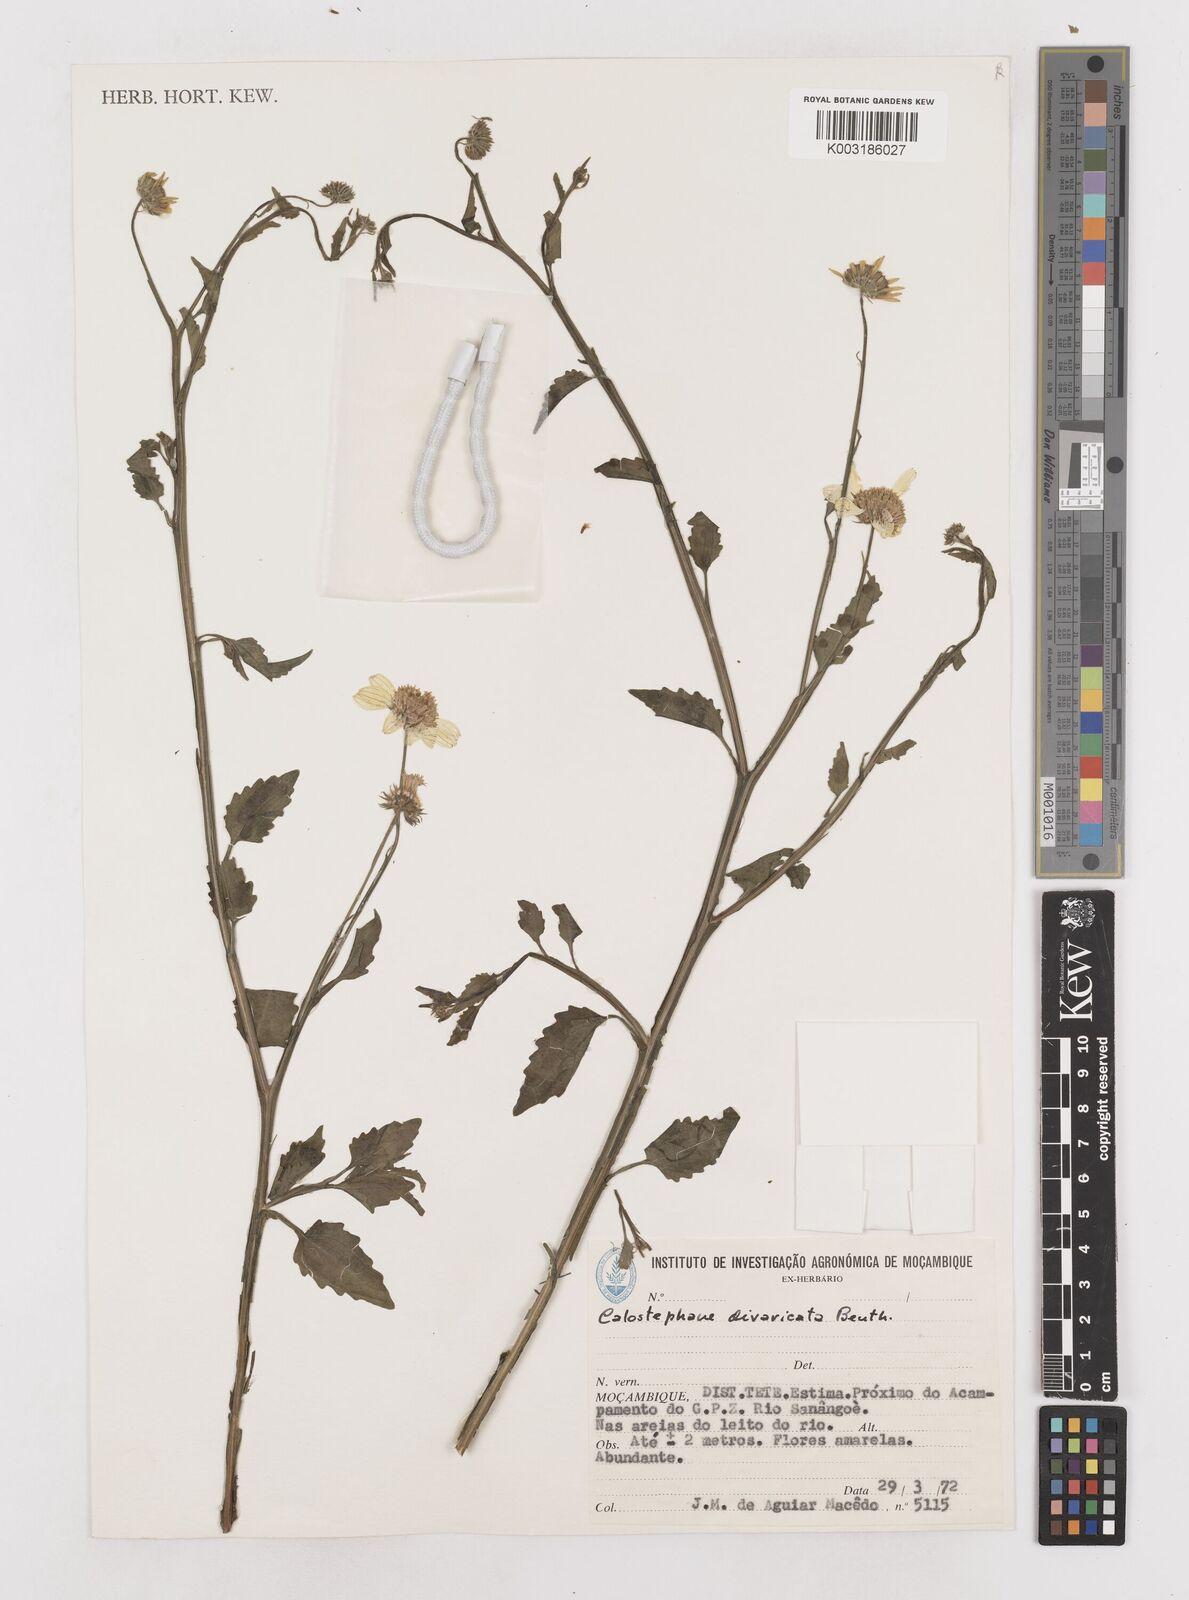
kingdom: Plantae
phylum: Tracheophyta
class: Magnoliopsida
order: Asterales
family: Asteraceae
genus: Calostephane
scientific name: Calostephane divaricata
